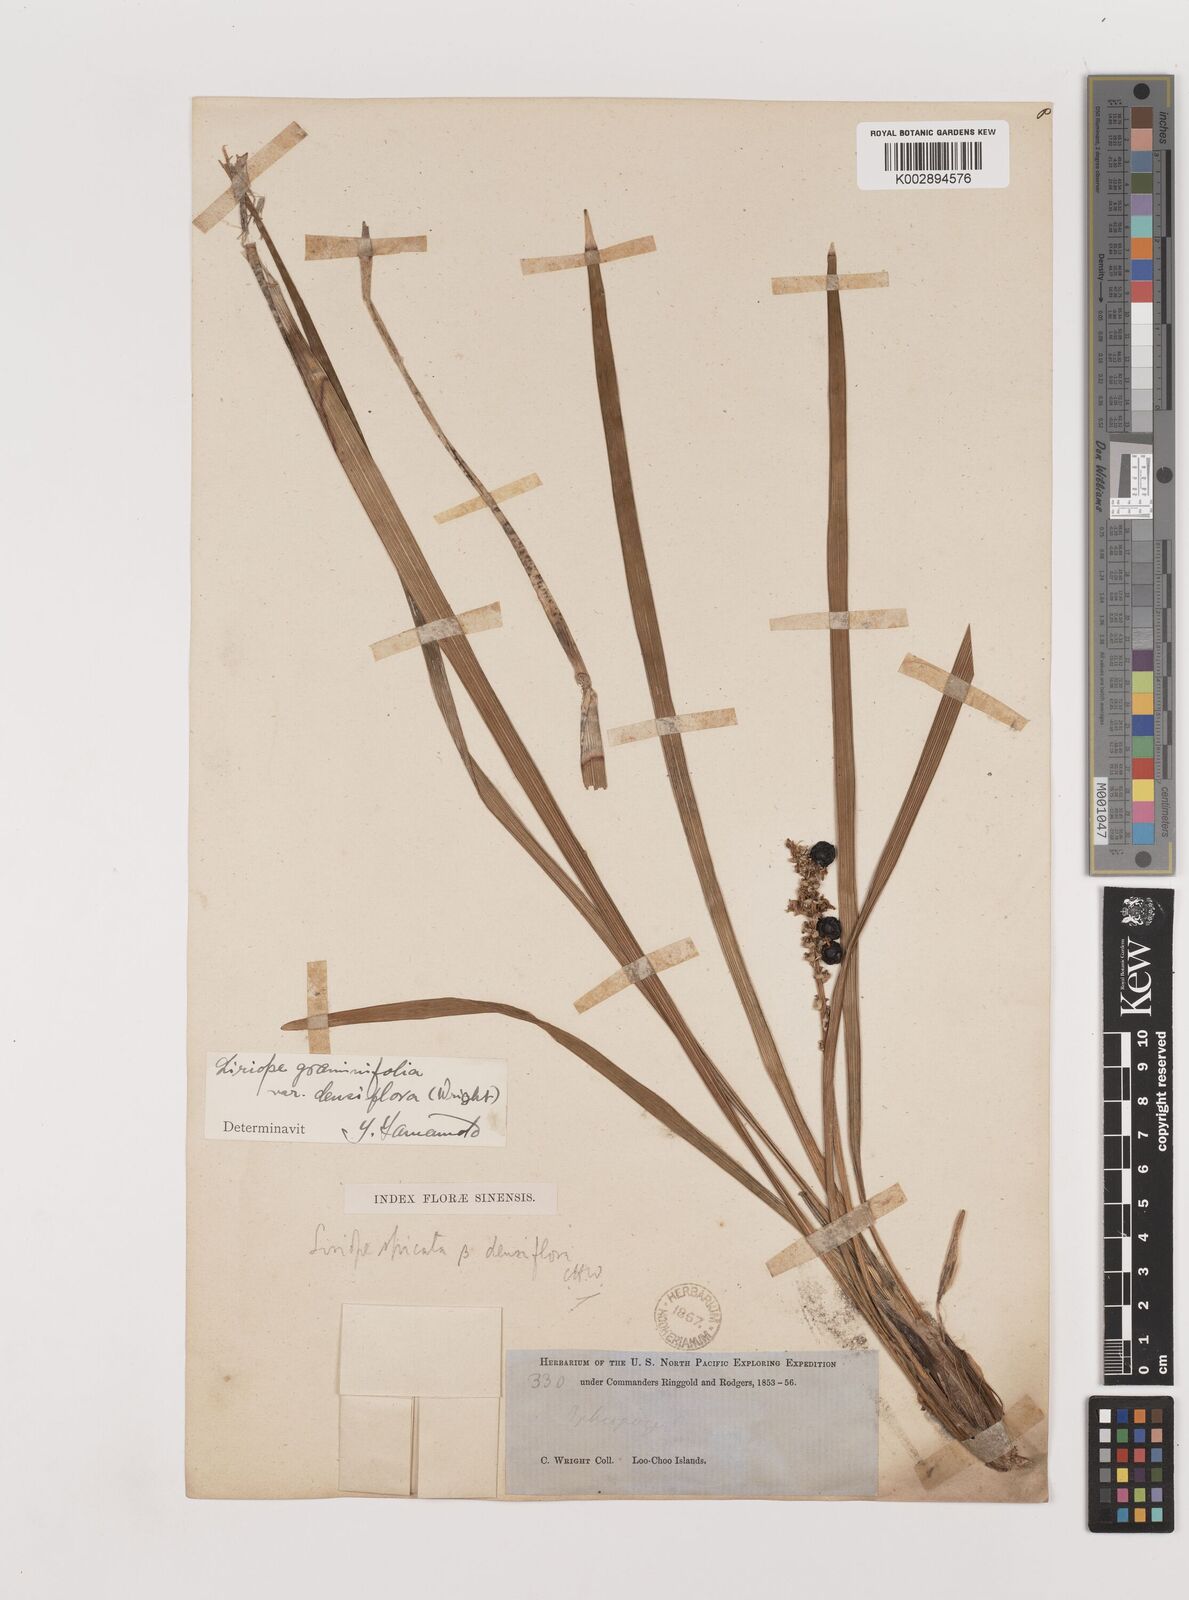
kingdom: Plantae
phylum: Tracheophyta
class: Liliopsida
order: Asparagales
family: Asparagaceae
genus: Liriope
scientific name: Liriope muscari
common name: Big blue lilyturf
